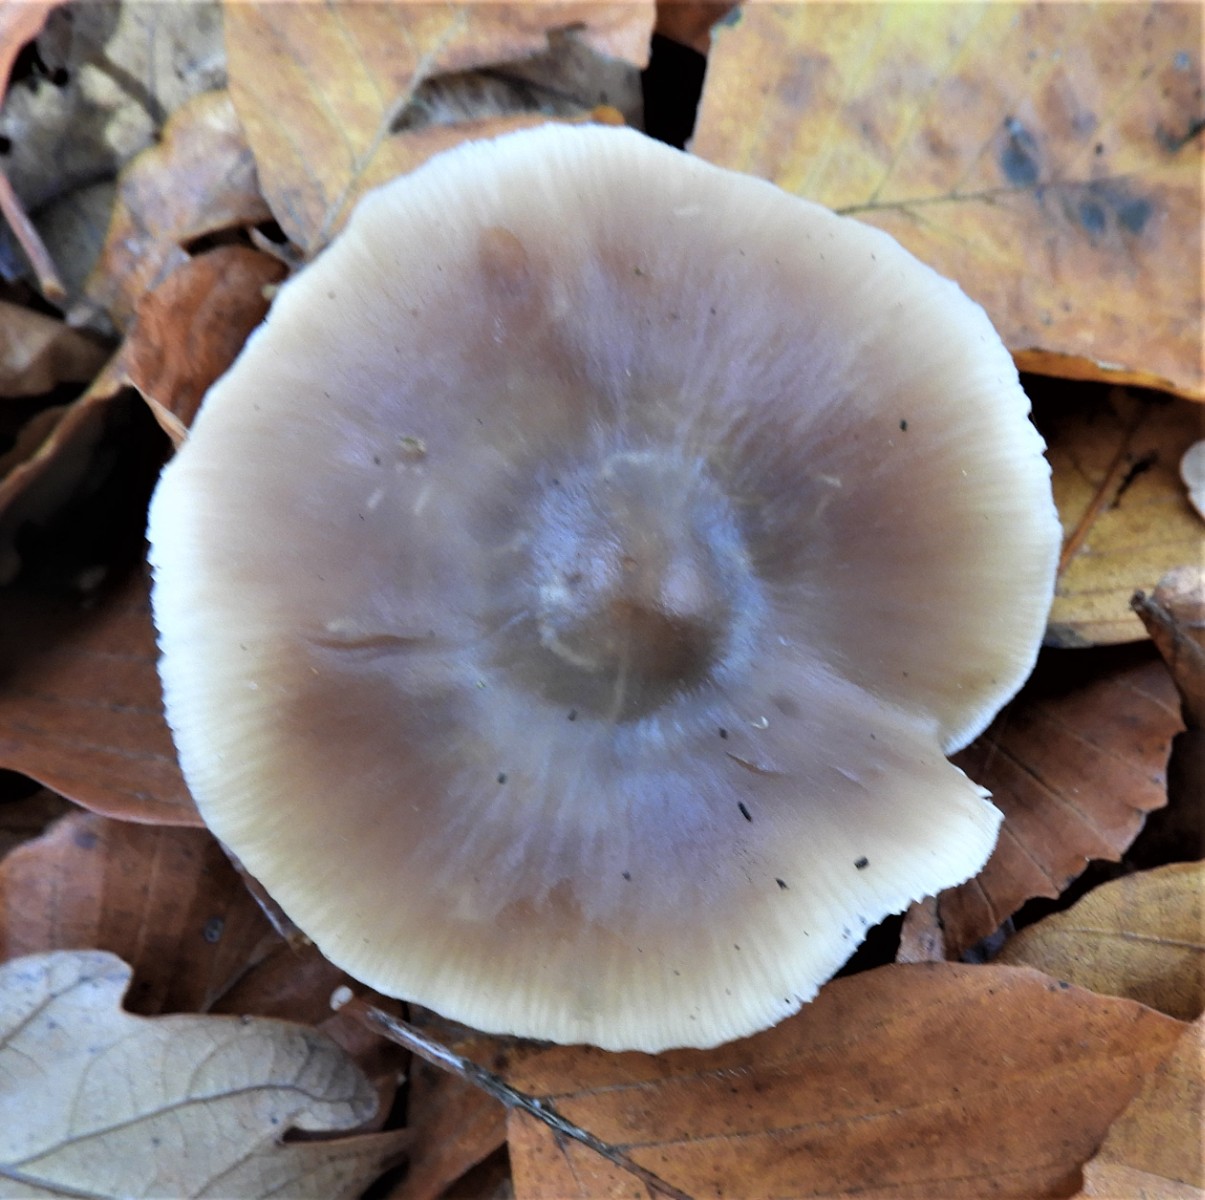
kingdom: Fungi
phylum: Basidiomycota
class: Agaricomycetes
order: Agaricales
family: Omphalotaceae
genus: Rhodocollybia
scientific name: Rhodocollybia asema
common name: horngrå fladhat
